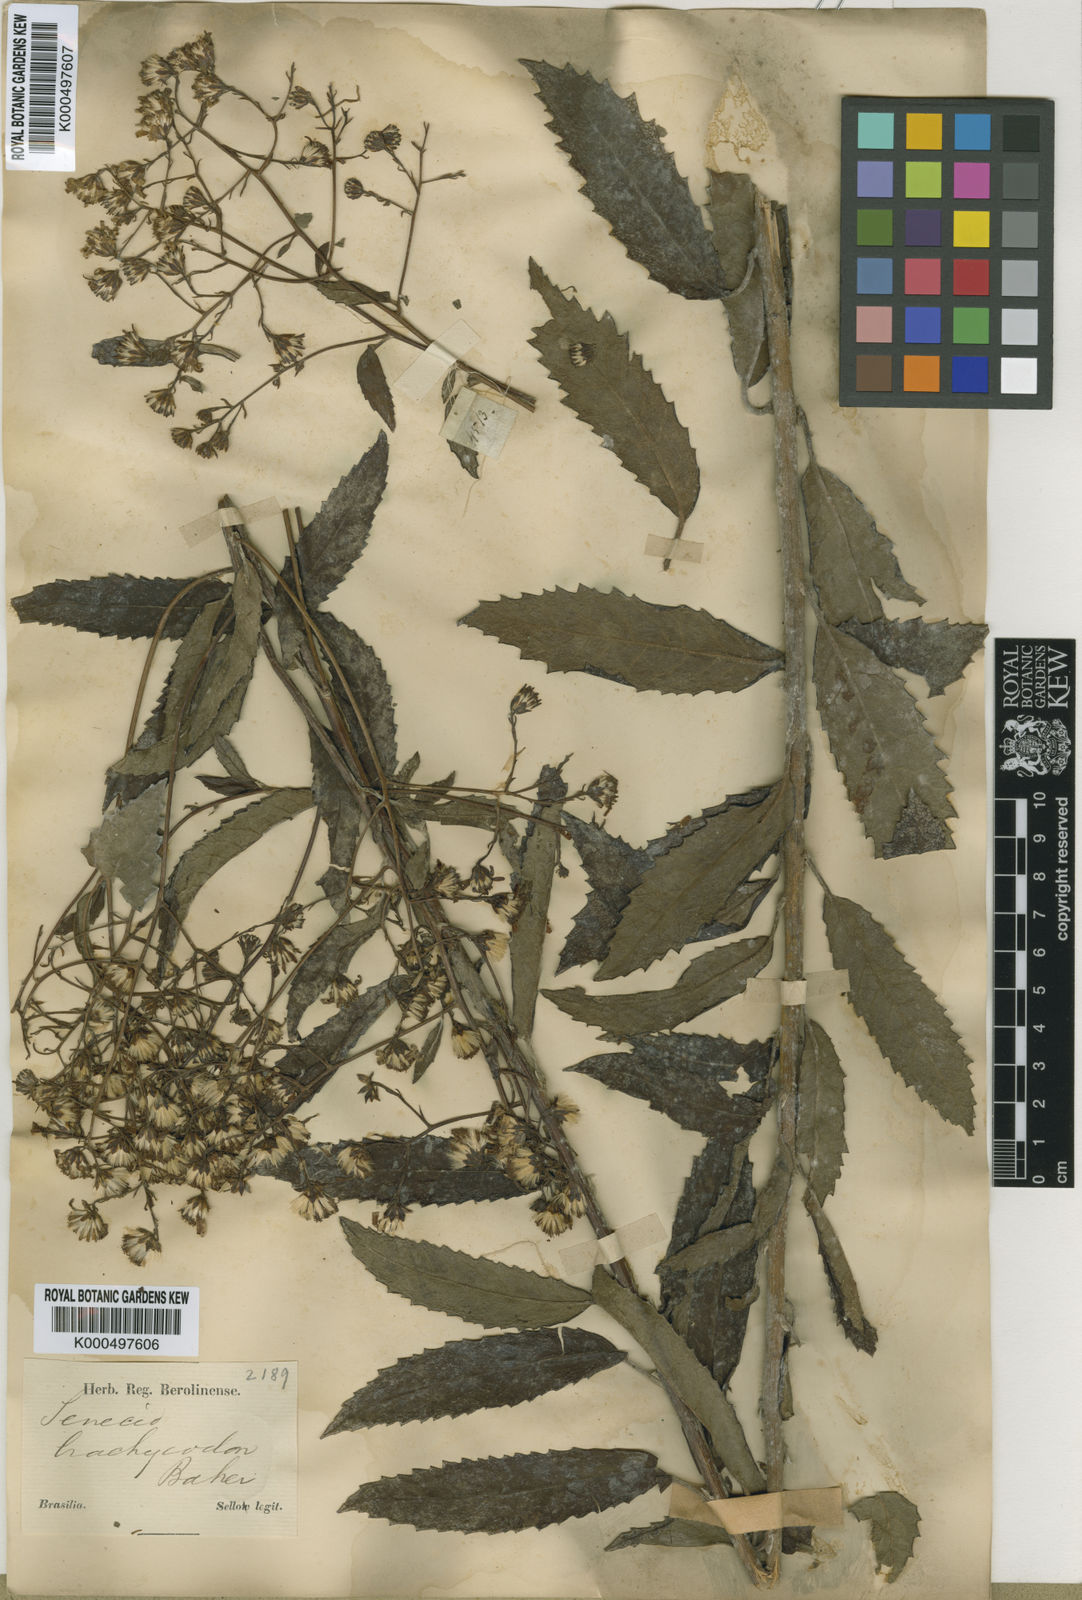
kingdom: Plantae
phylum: Tracheophyta
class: Magnoliopsida
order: Asterales
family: Asteraceae
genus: Dendrophorbium
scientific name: Dendrophorbium brachycodon
